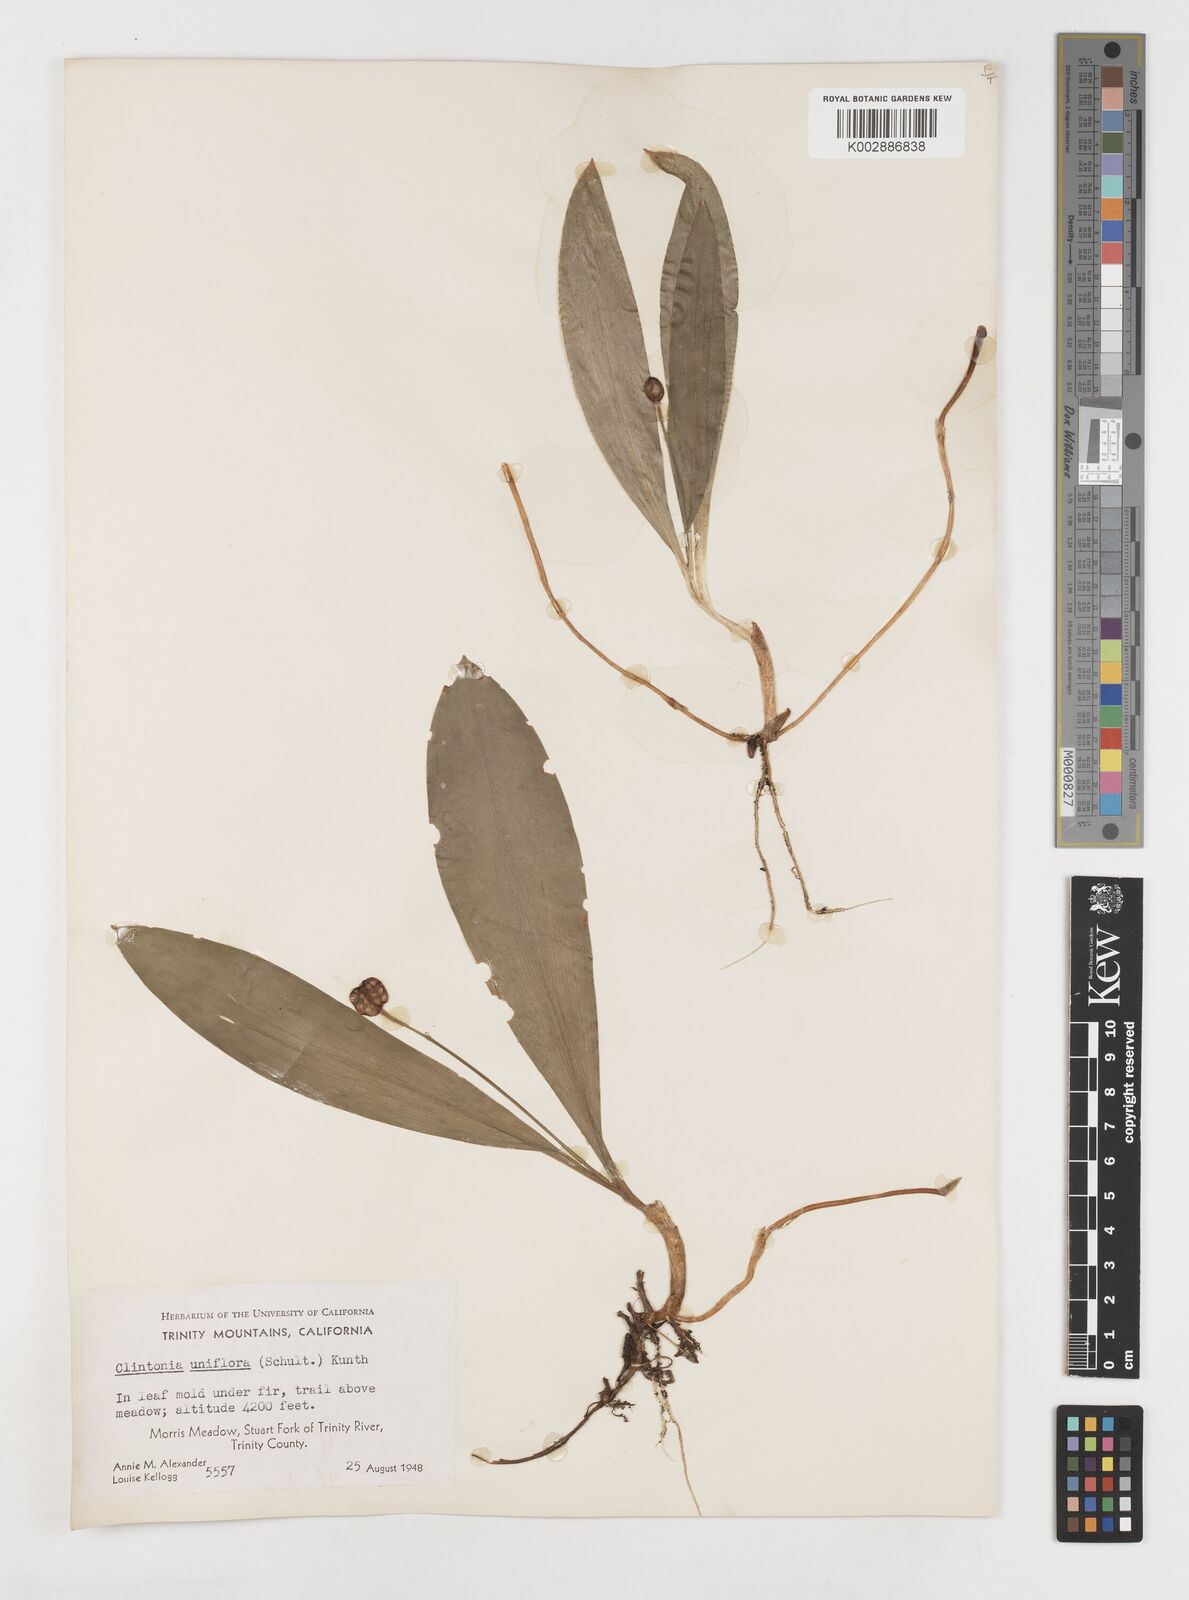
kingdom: Plantae
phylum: Tracheophyta
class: Liliopsida
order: Liliales
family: Liliaceae
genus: Clintonia
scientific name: Clintonia uniflora
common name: Queen's cup
